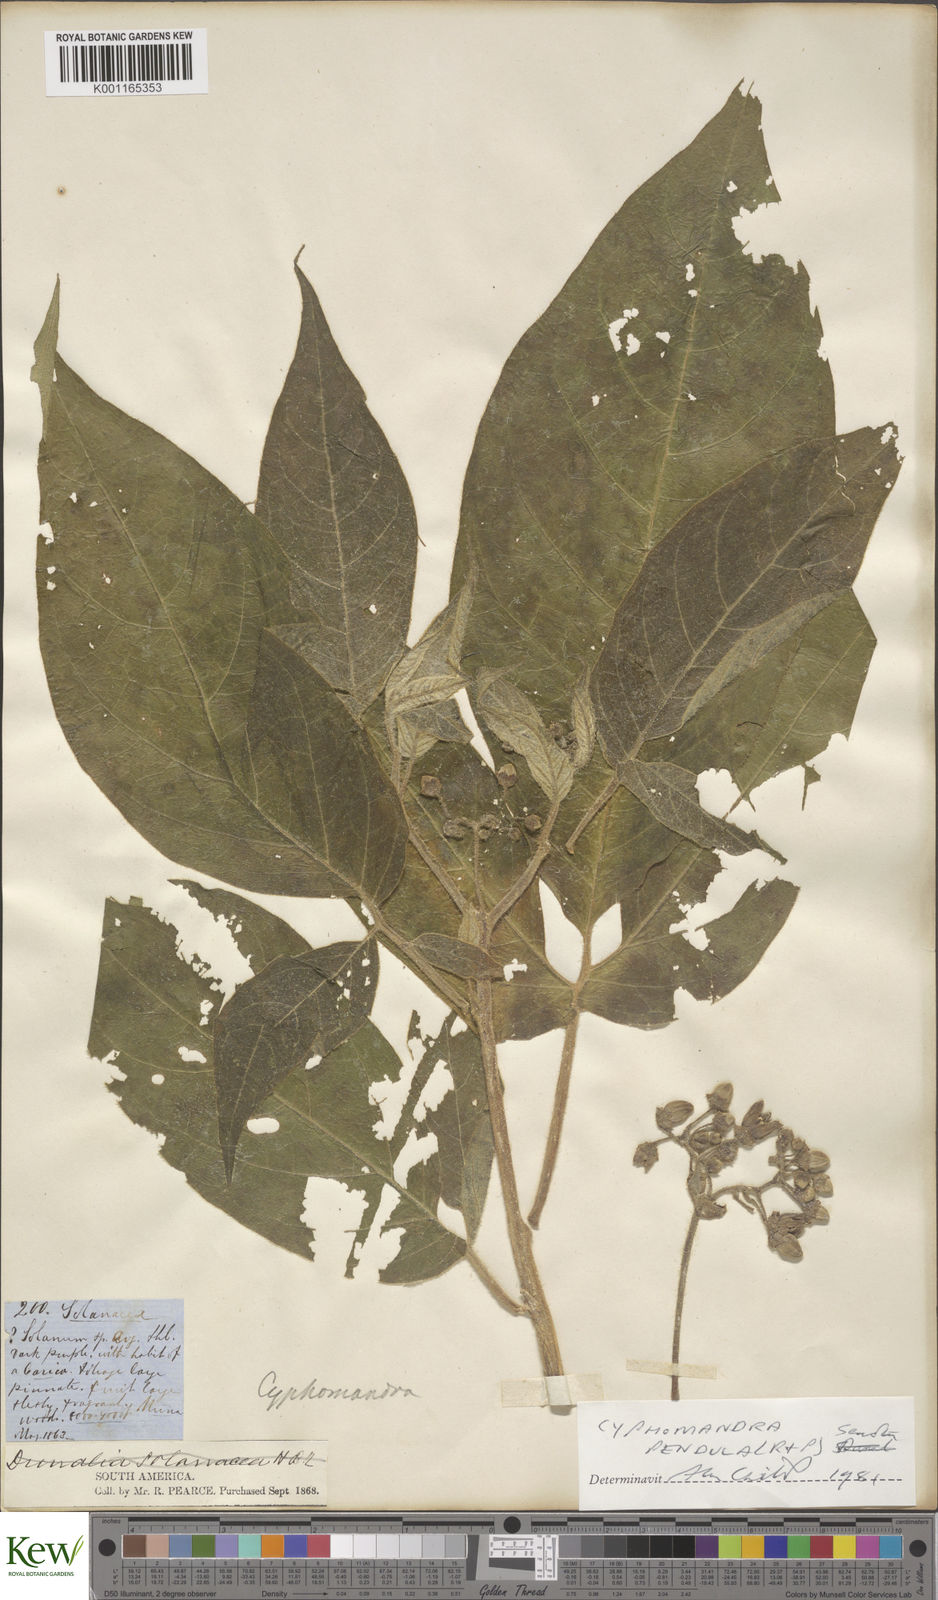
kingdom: Plantae
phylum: Tracheophyta
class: Magnoliopsida
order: Solanales
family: Solanaceae
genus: Solanum
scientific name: Solanum pendulum
